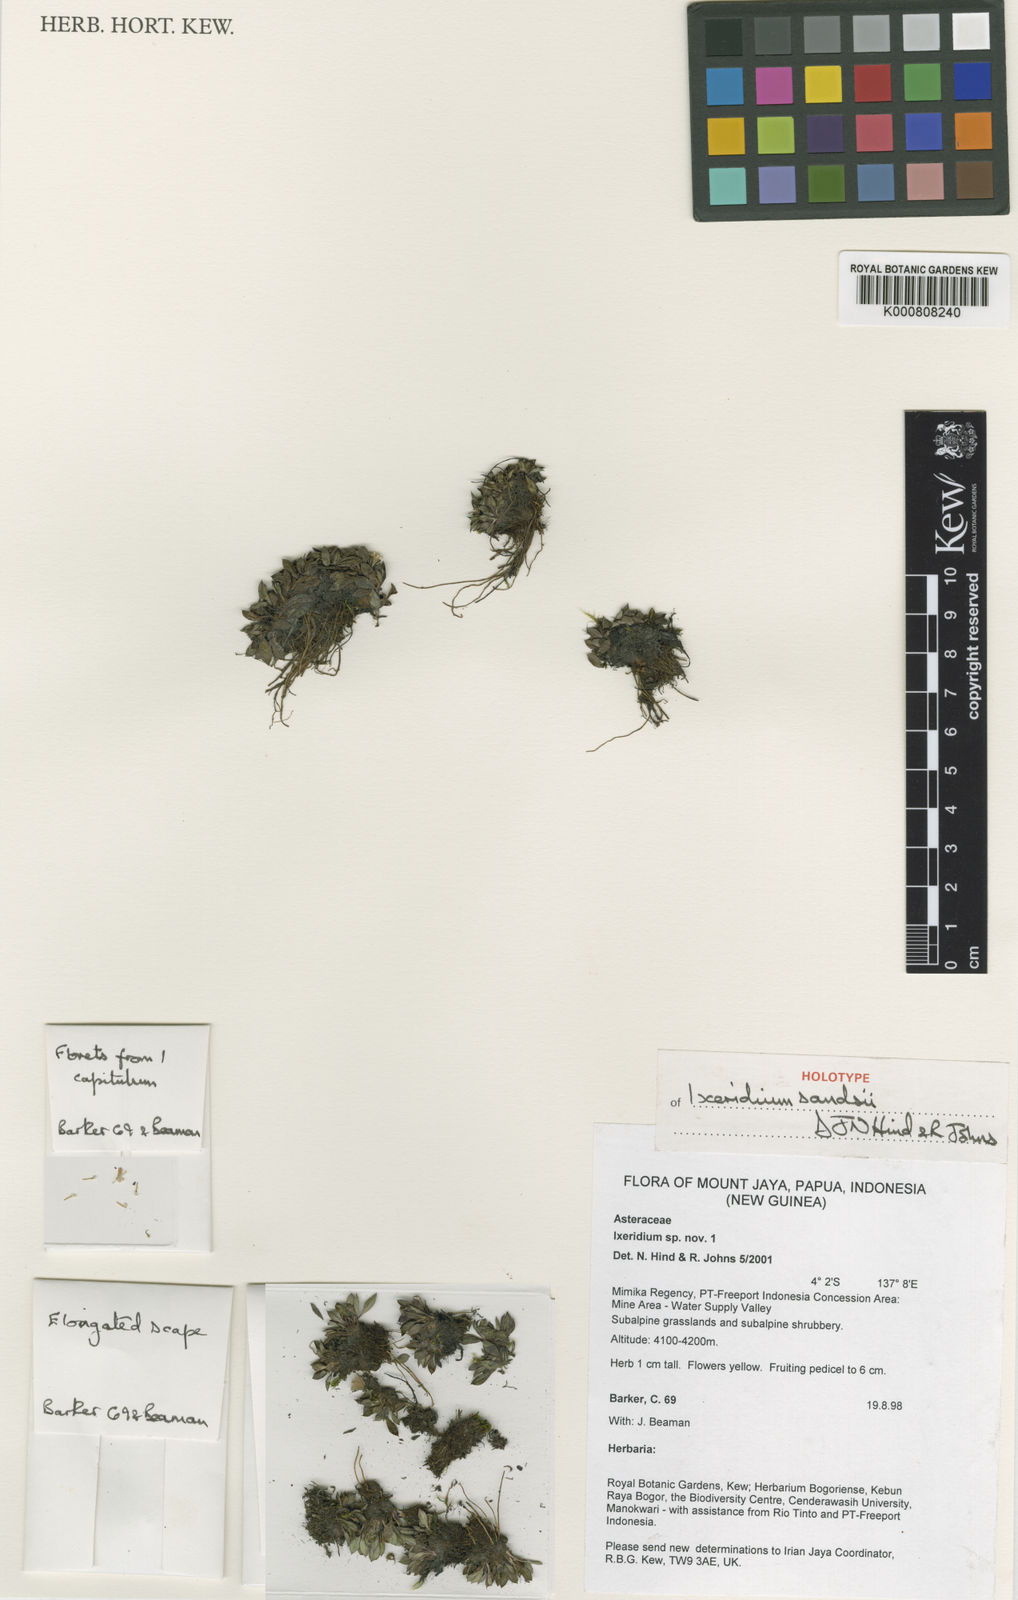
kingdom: Plantae
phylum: Tracheophyta
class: Magnoliopsida
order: Asterales
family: Asteraceae
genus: Ixeridium
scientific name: Ixeridium sandsii
